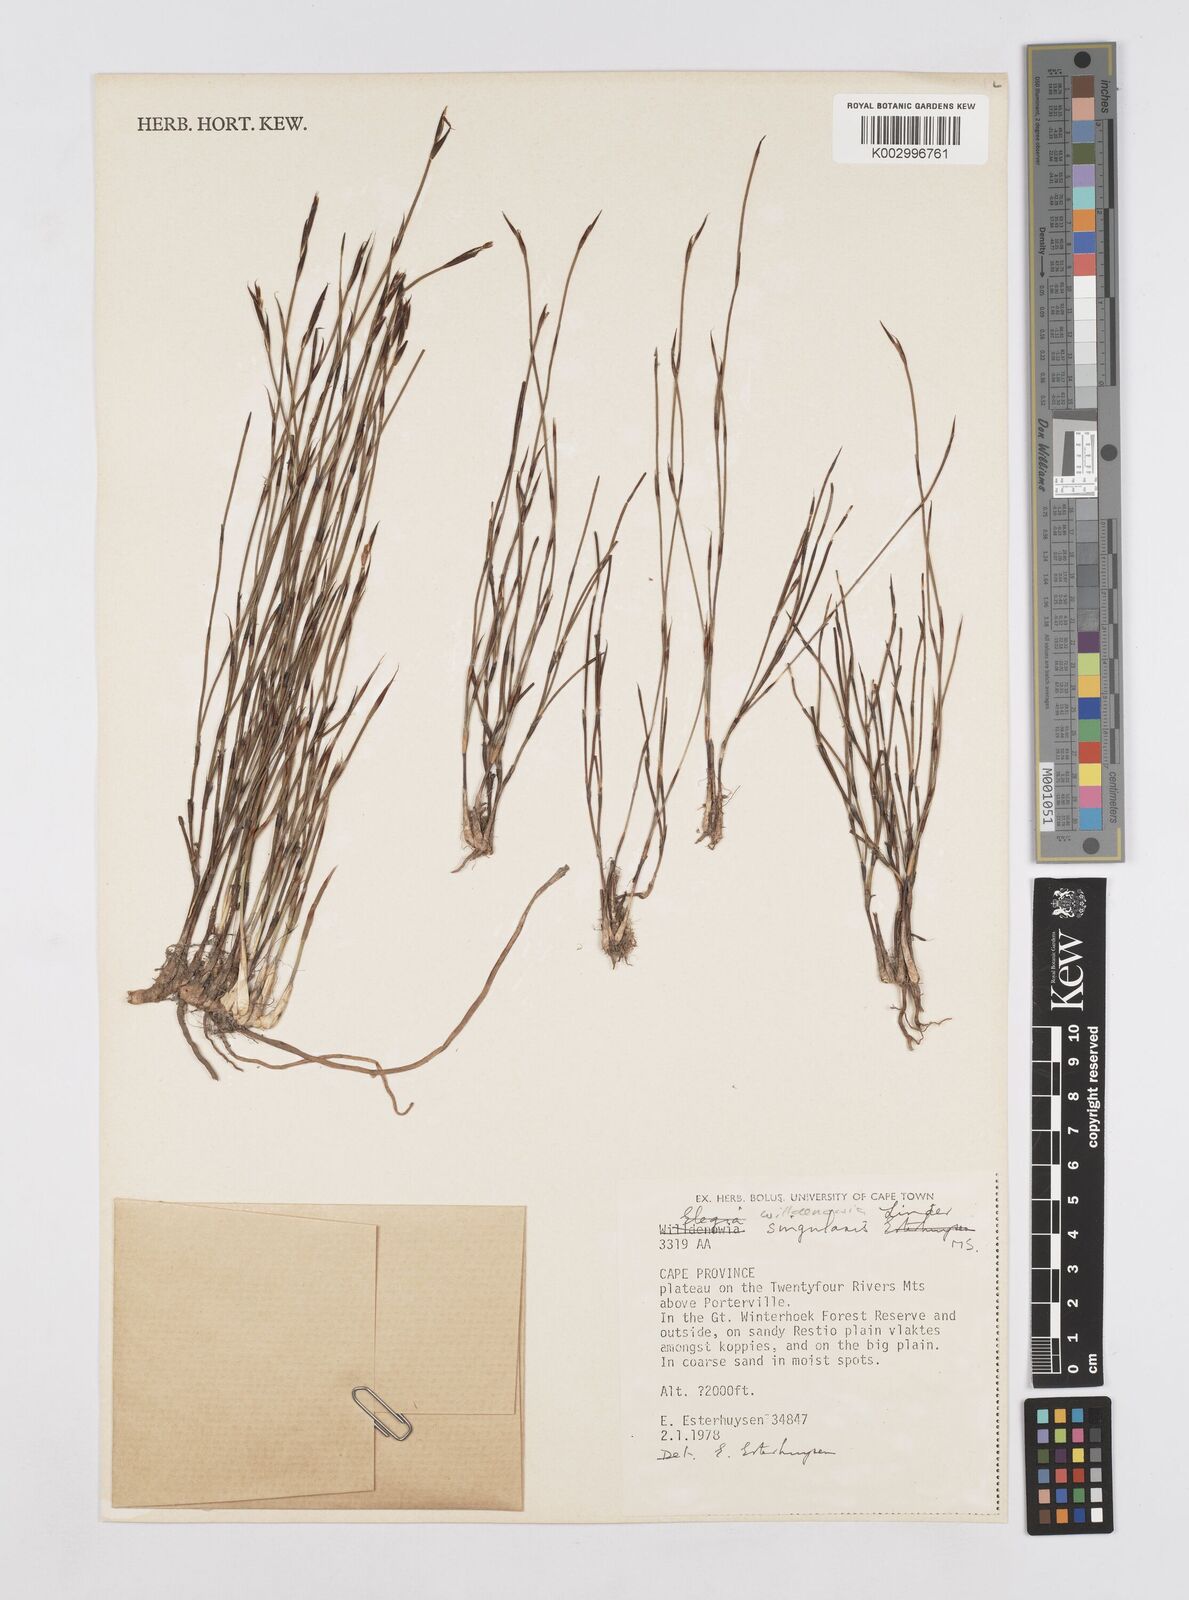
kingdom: Plantae
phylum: Tracheophyta
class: Liliopsida
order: Poales
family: Restionaceae
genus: Willdenowia
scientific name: Willdenowia
